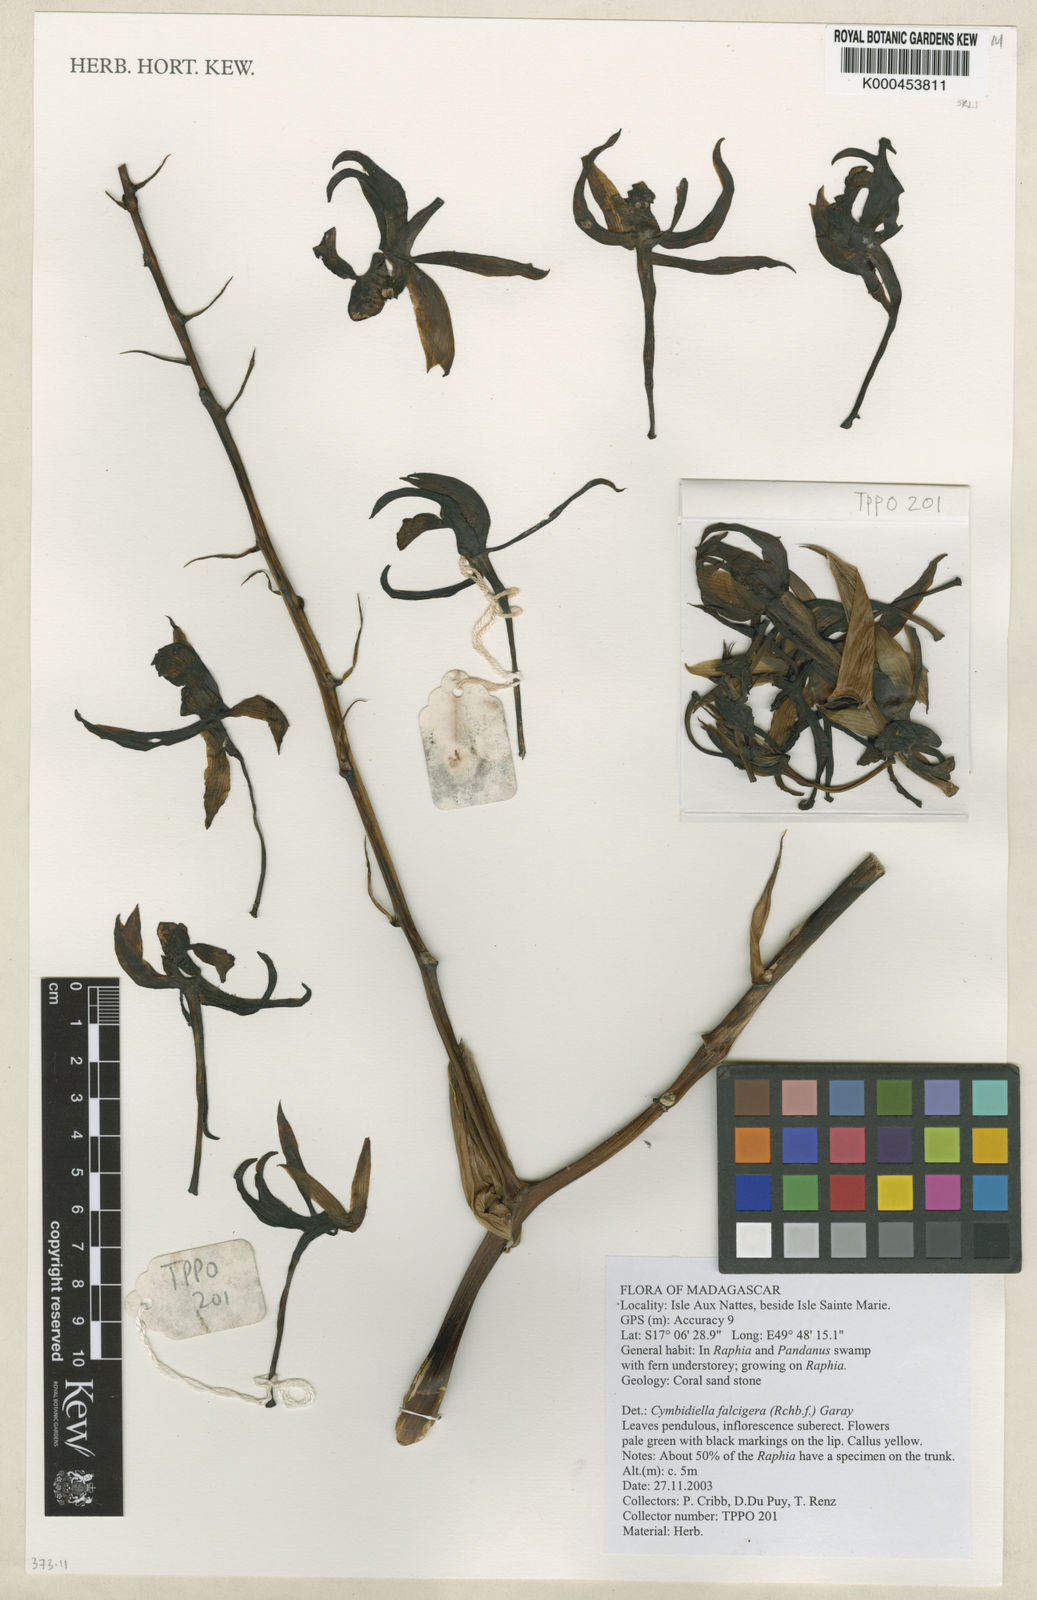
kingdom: Plantae
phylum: Tracheophyta
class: Liliopsida
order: Asparagales
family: Orchidaceae
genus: Eulophia
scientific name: Eulophia falcigera
